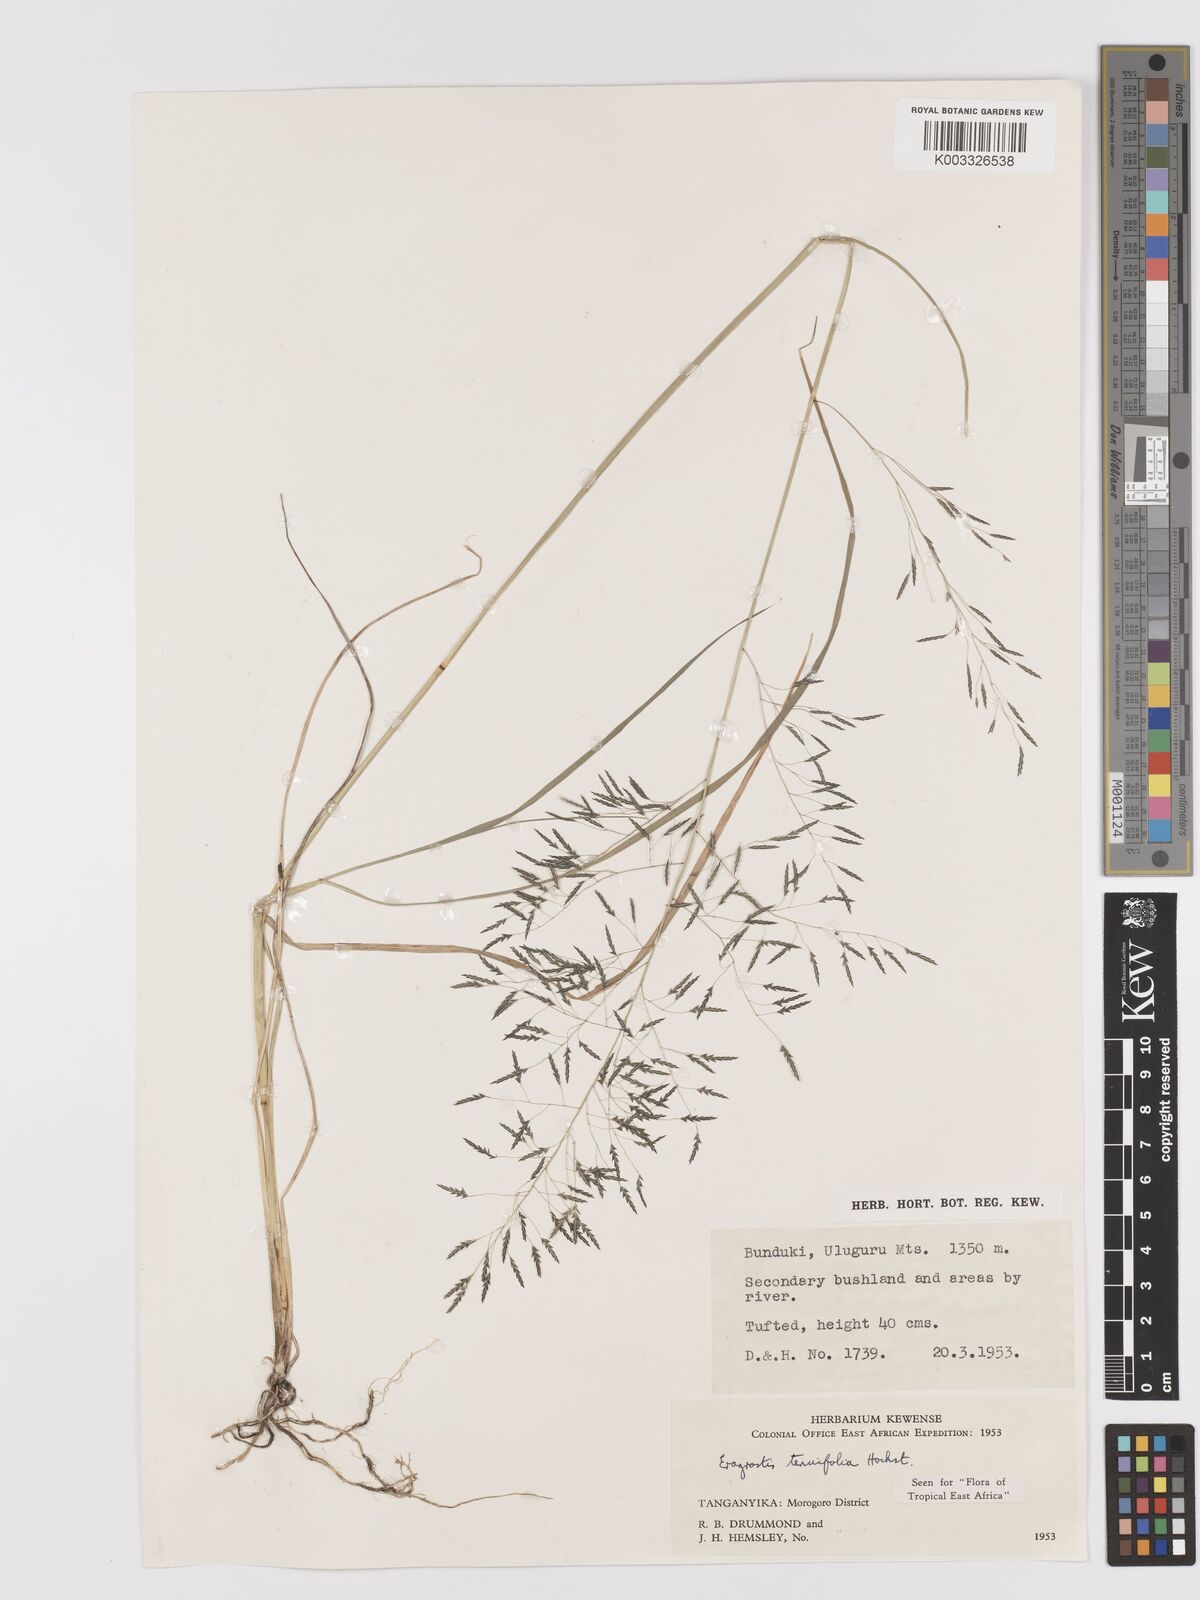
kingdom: Plantae
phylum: Tracheophyta
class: Liliopsida
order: Poales
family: Poaceae
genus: Eragrostis
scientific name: Eragrostis tenuifolia
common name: Elastic grass
